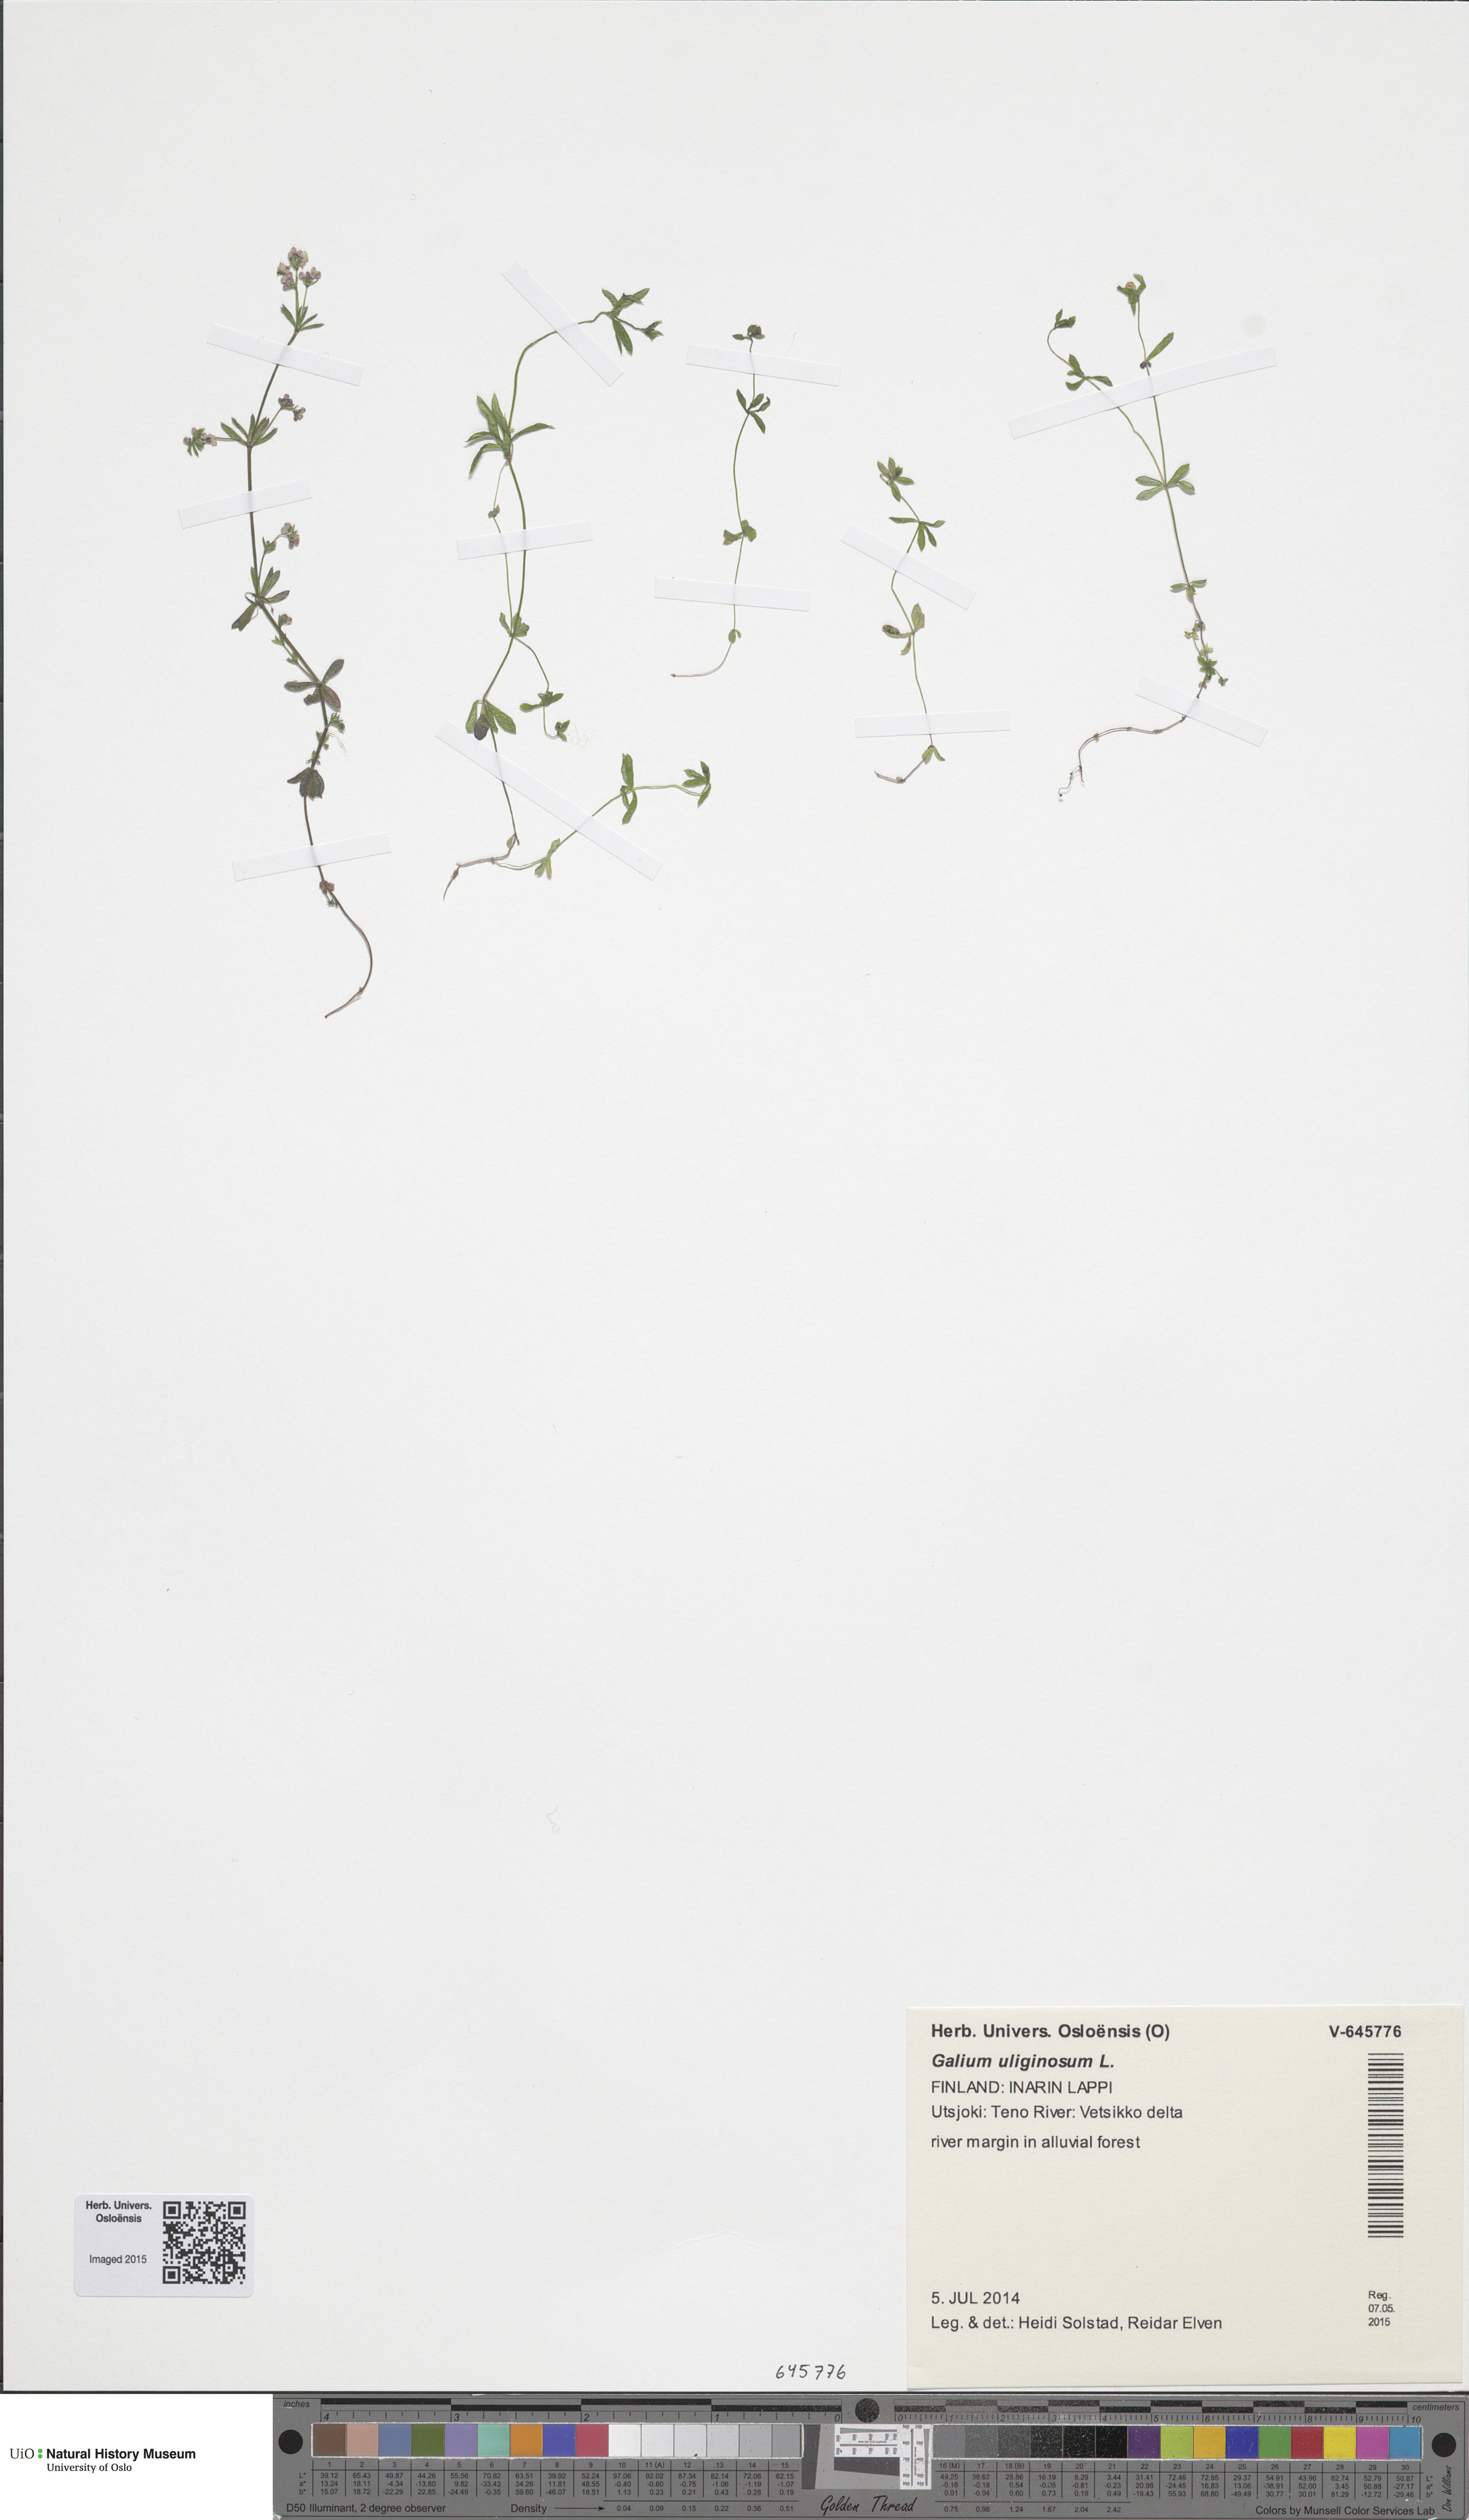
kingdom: Plantae
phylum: Tracheophyta
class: Magnoliopsida
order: Gentianales
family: Rubiaceae
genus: Galium
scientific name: Galium uliginosum
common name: Fen bedstraw
